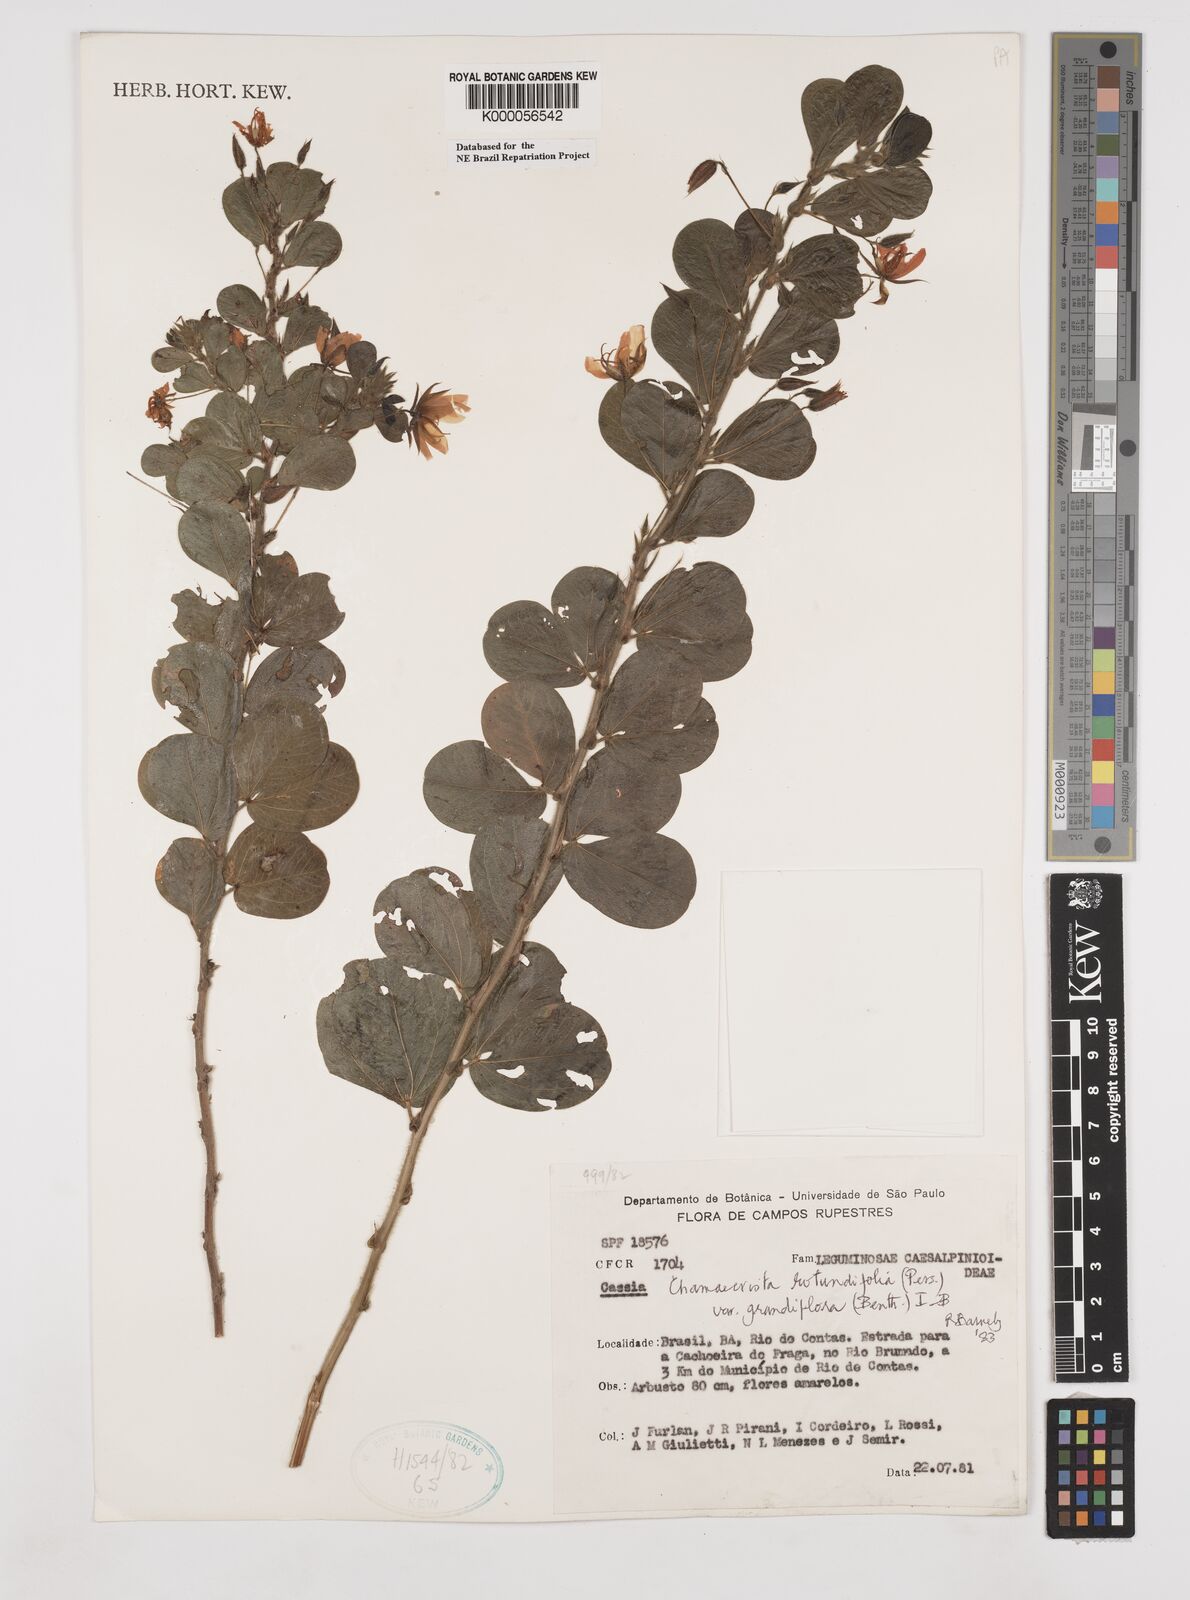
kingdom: Plantae
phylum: Tracheophyta
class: Magnoliopsida
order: Fabales
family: Fabaceae
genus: Chamaecrista
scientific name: Chamaecrista rotundifolia
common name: Round-leaf cassia
